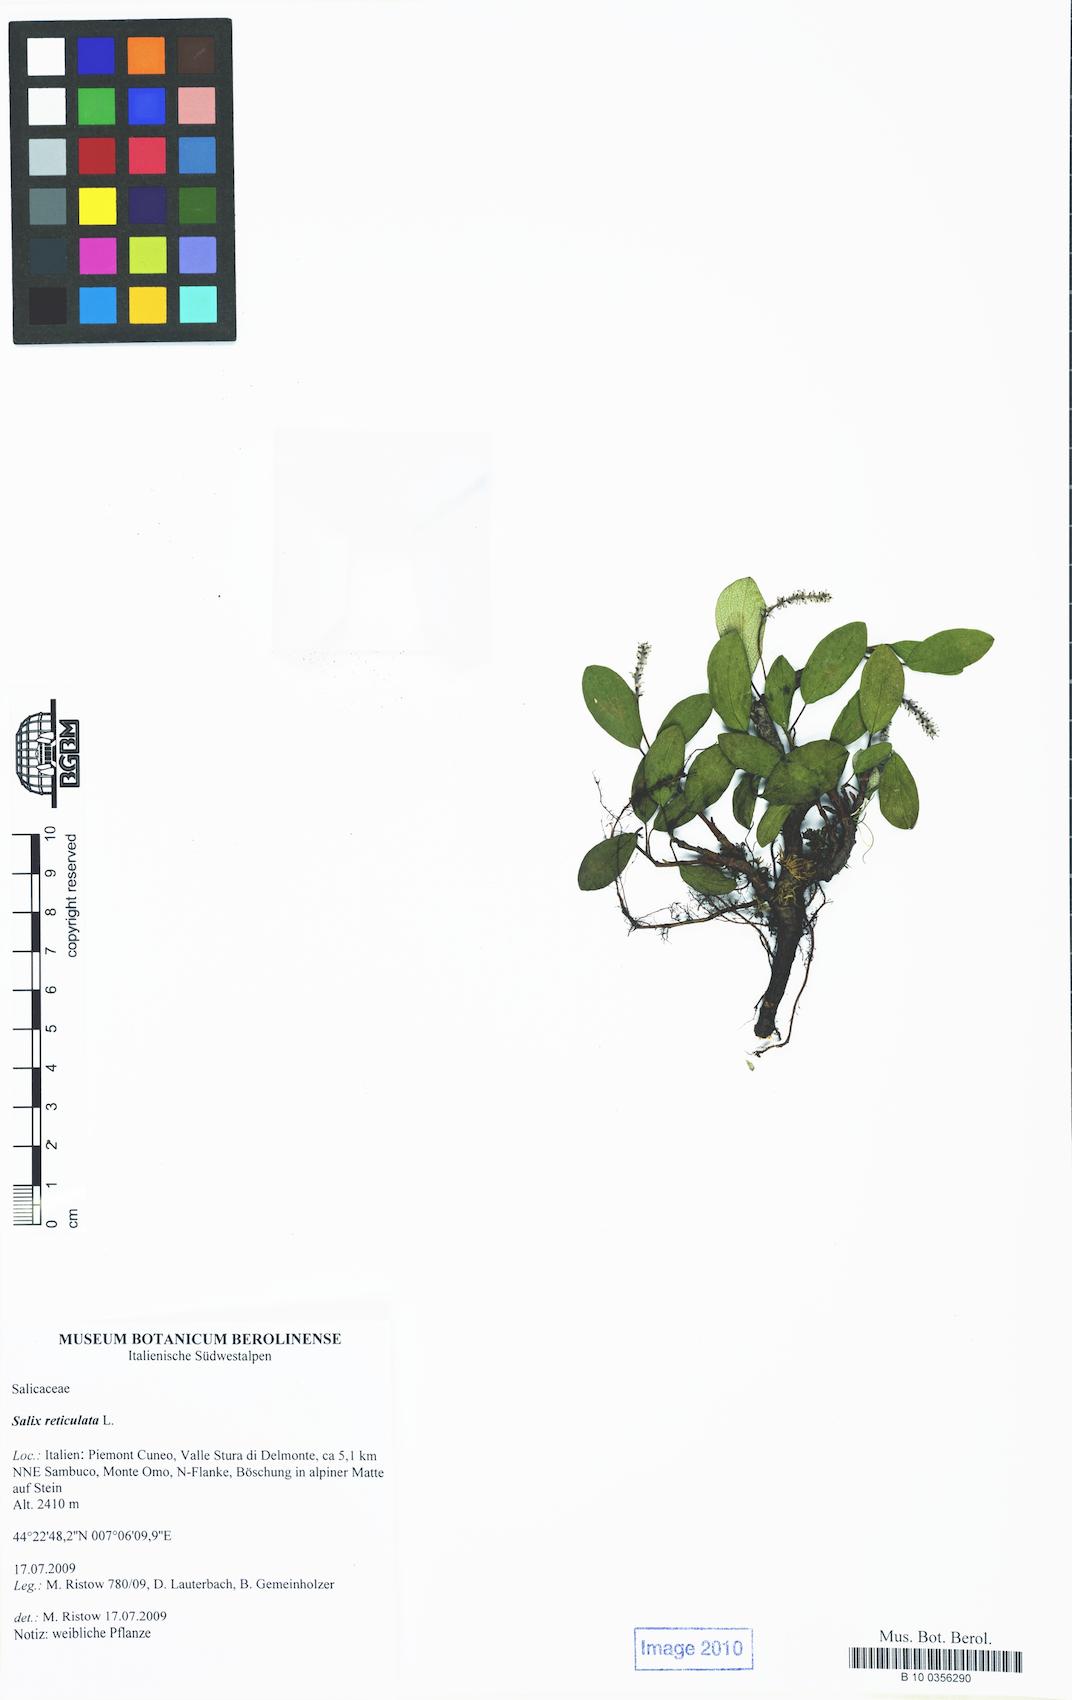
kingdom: Plantae
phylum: Tracheophyta
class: Magnoliopsida
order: Malpighiales
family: Salicaceae
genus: Salix
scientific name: Salix reticulata
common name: Net-leaved willow
